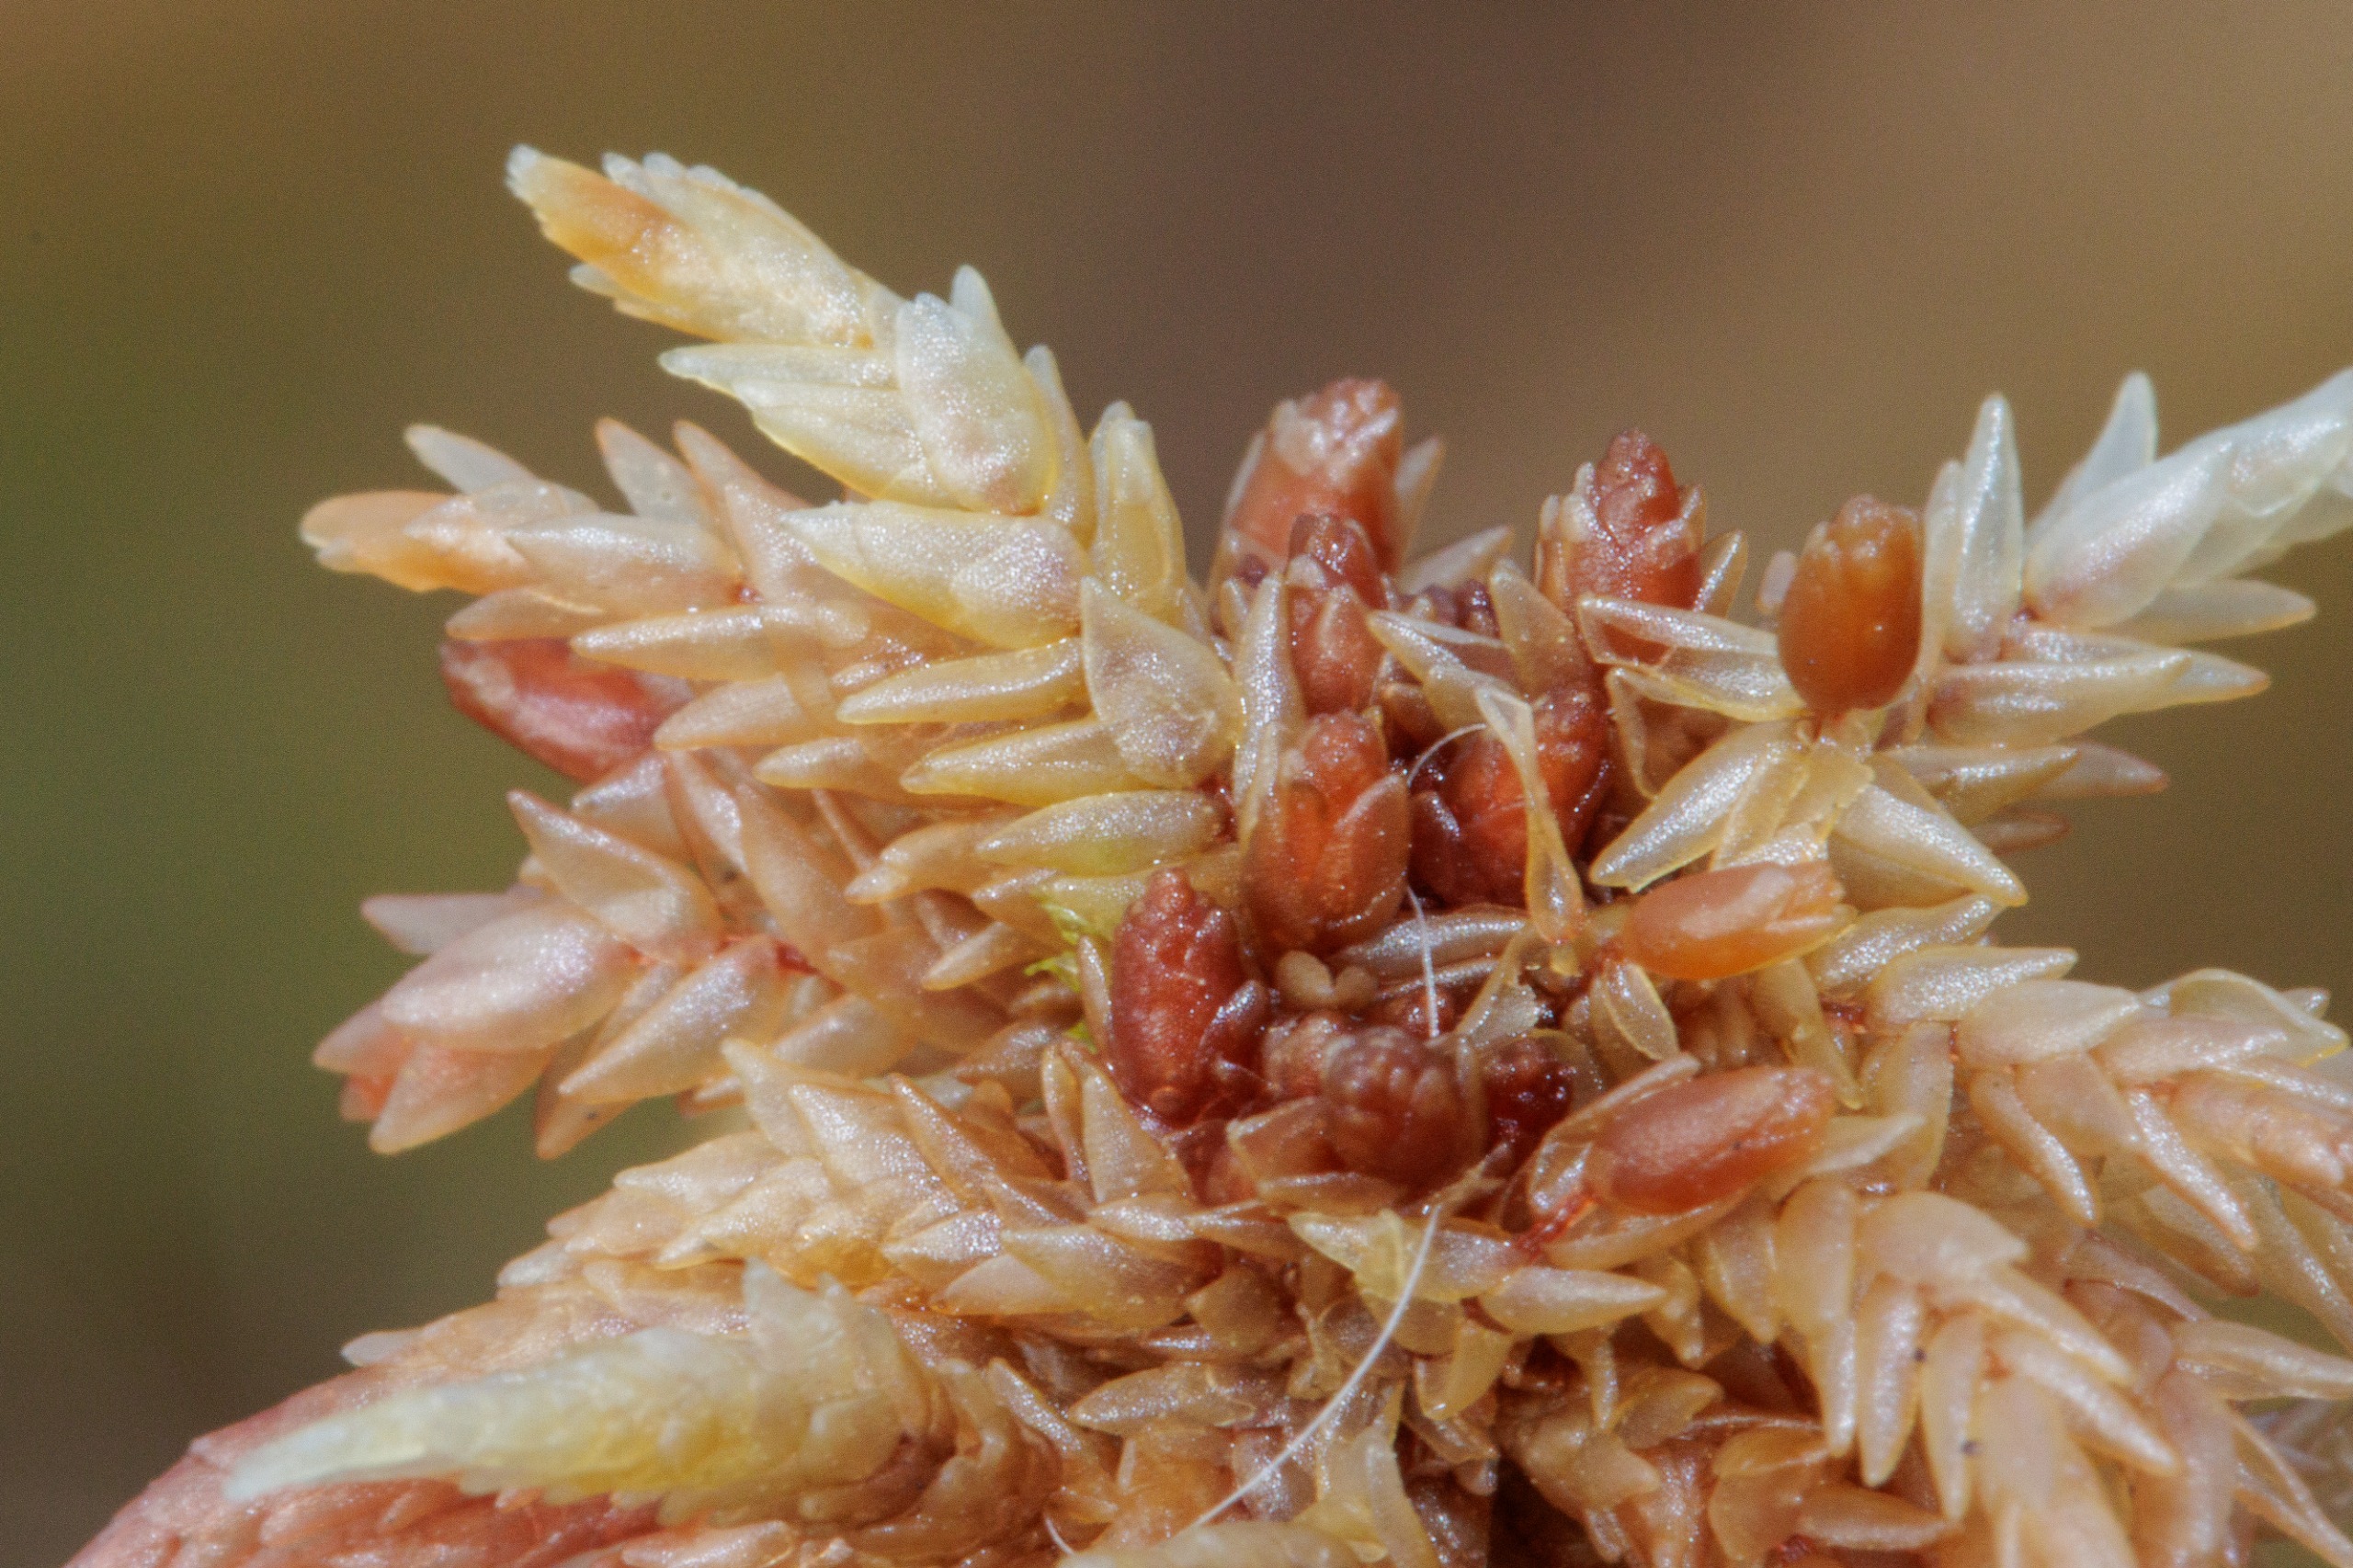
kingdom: Plantae
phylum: Bryophyta
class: Sphagnopsida
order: Sphagnales
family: Sphagnaceae
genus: Sphagnum
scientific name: Sphagnum
